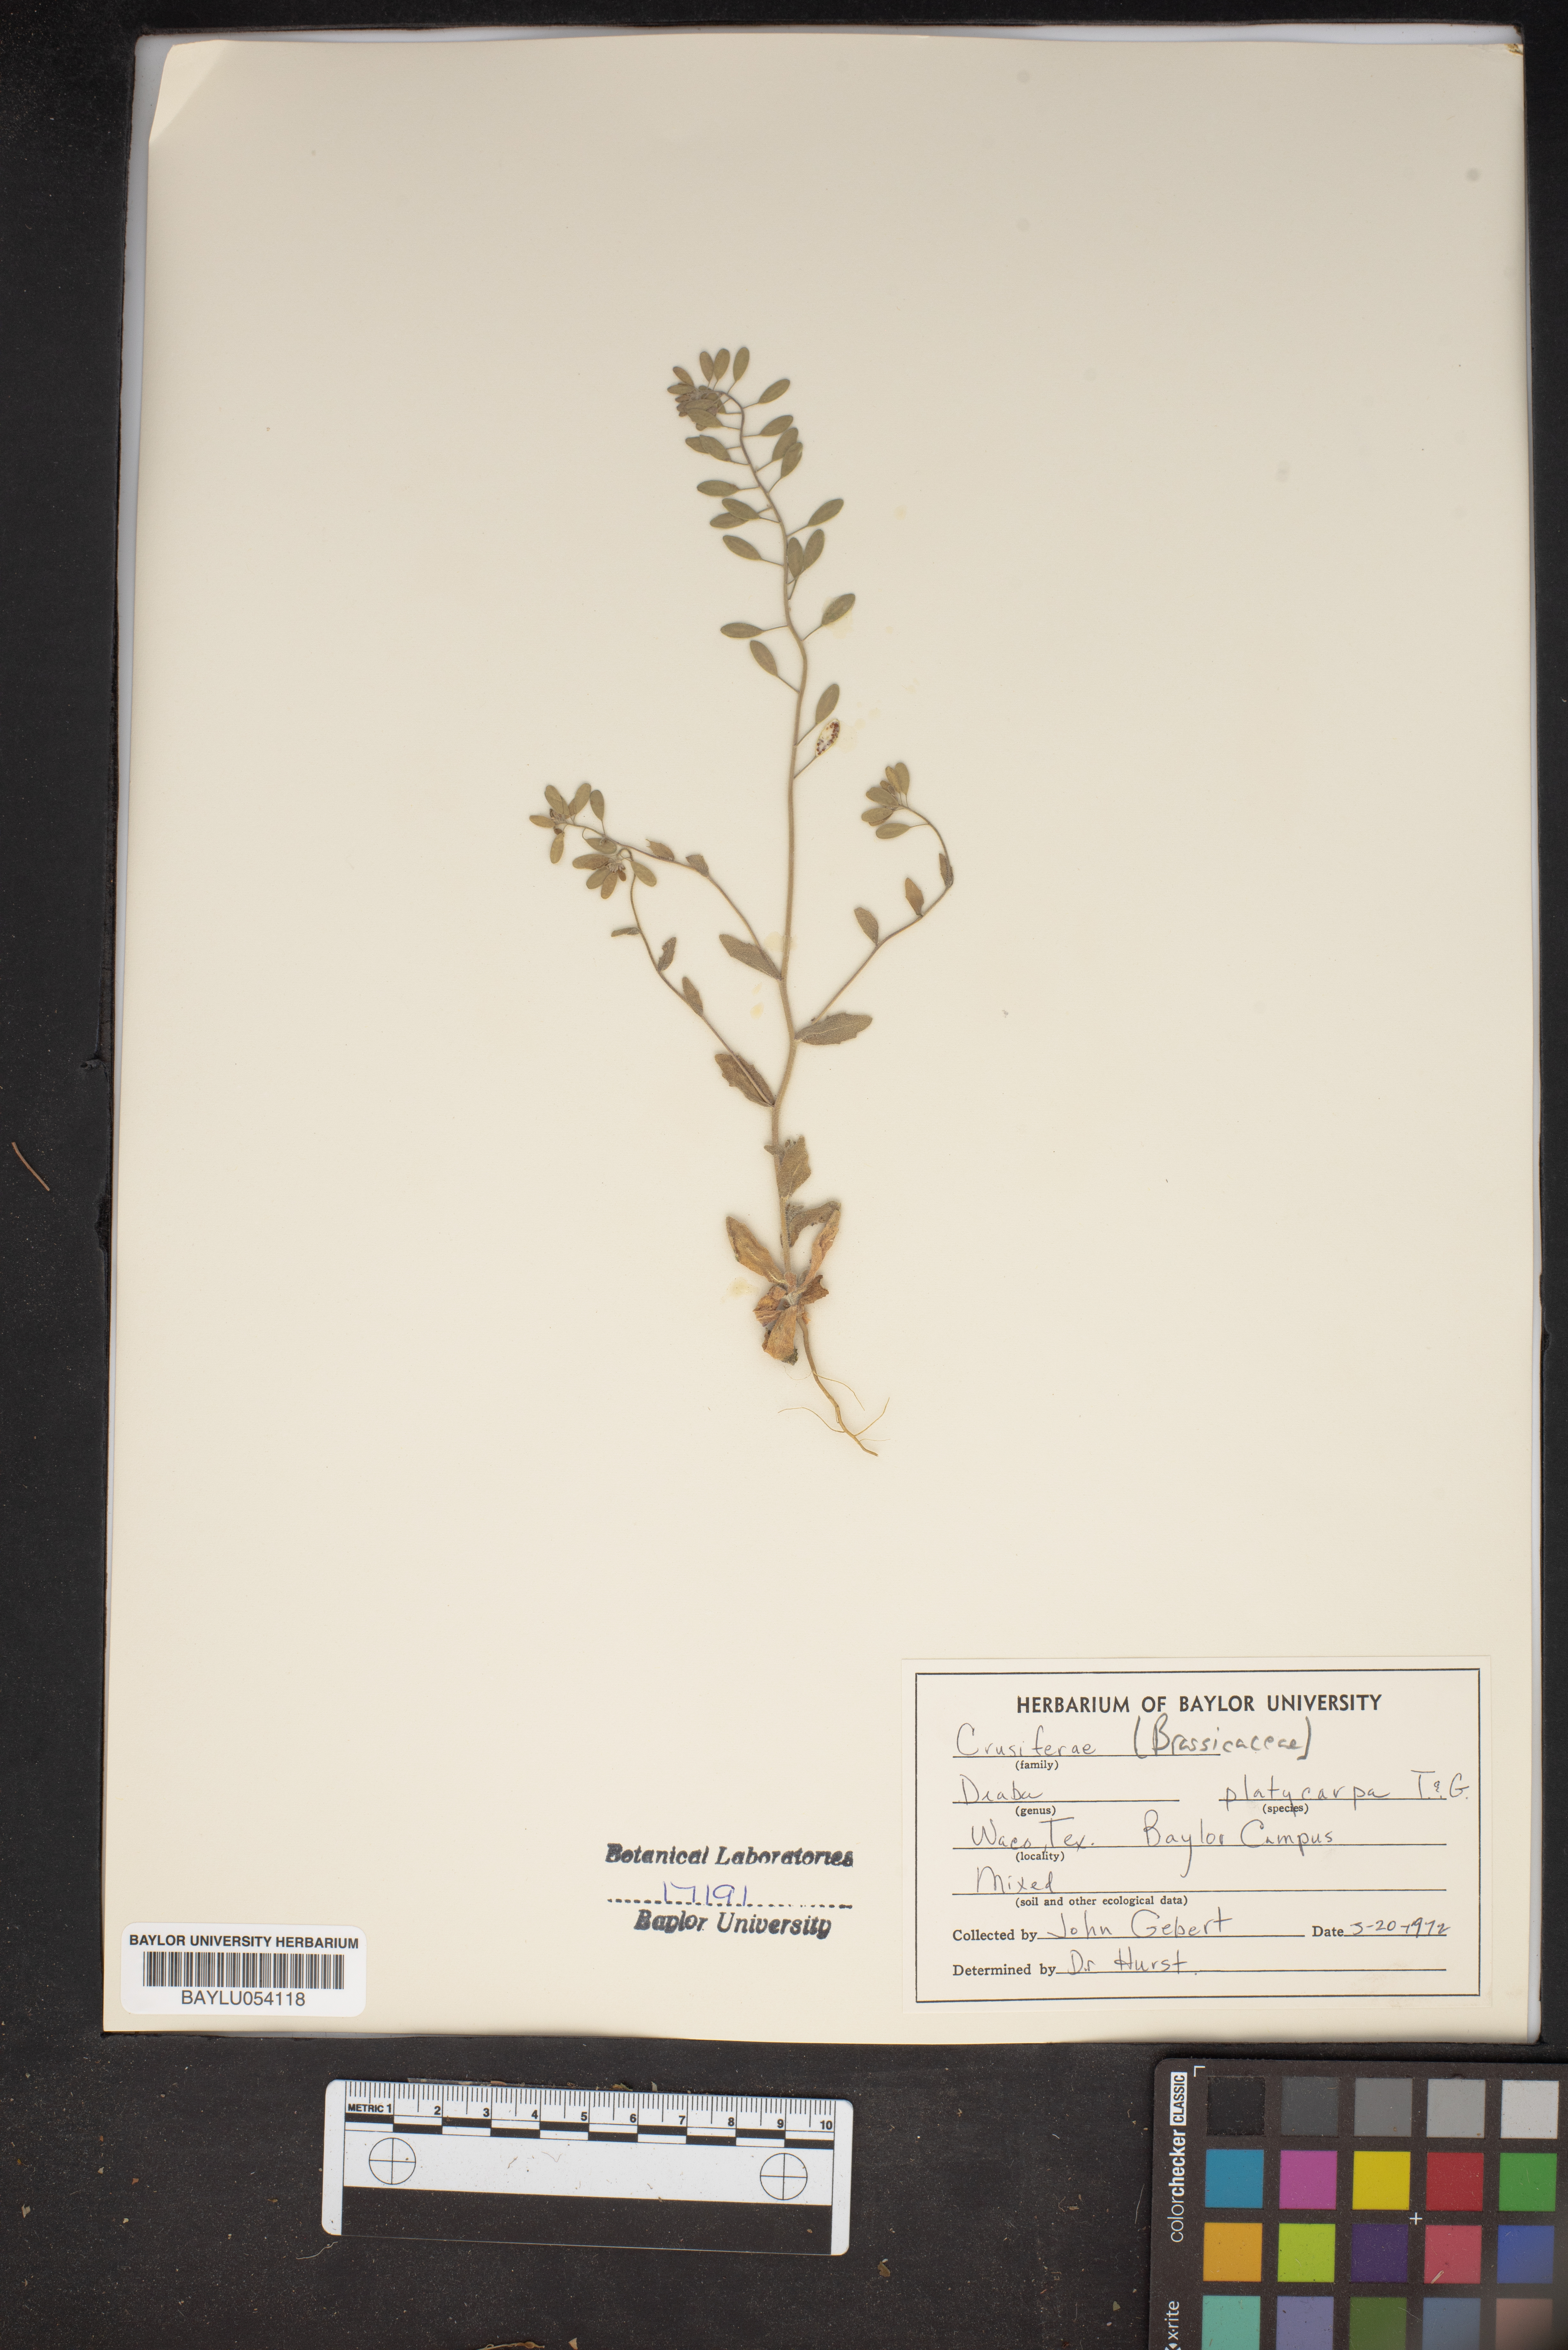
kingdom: Plantae
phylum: Tracheophyta
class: Magnoliopsida
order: Brassicales
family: Brassicaceae
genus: Tomostima
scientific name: Tomostima platycarpa
